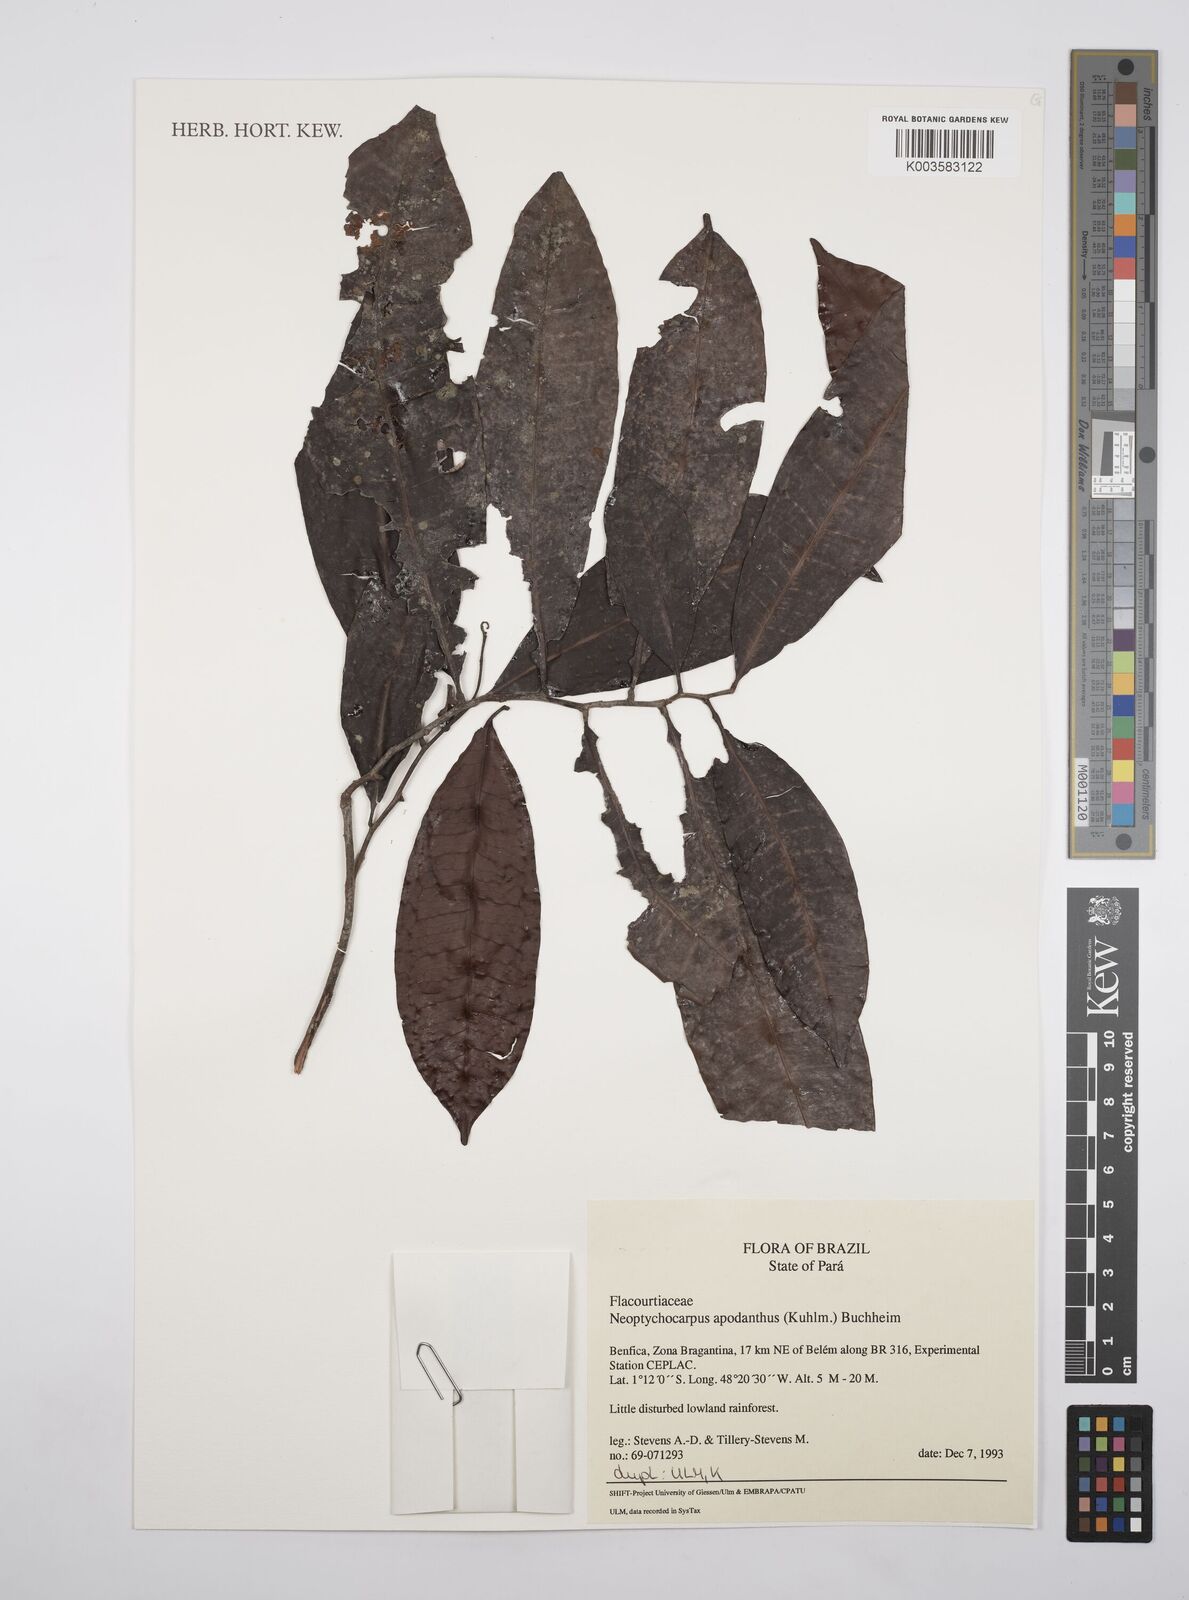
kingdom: Plantae
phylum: Tracheophyta
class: Magnoliopsida
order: Malpighiales
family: Salicaceae
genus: Casearia
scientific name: Casearia apodantha
